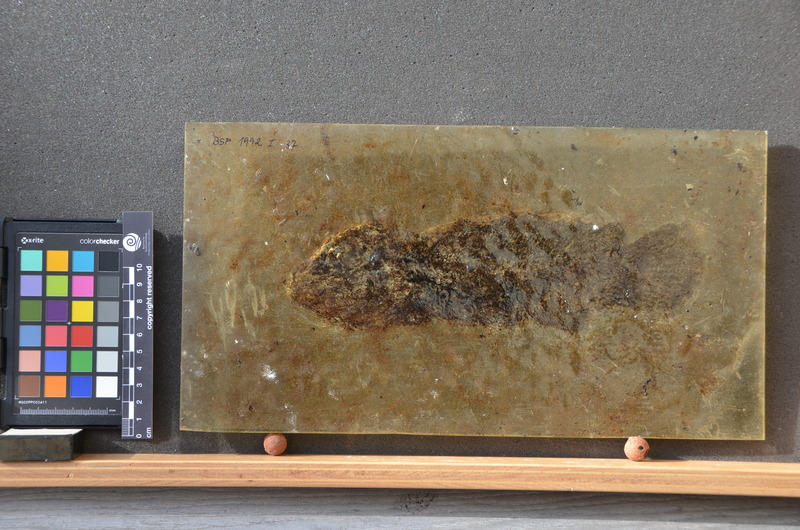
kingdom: Animalia
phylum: Chordata
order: Amiiformes
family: Amiidae
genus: Cyclurus
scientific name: Cyclurus Amia kehreri
